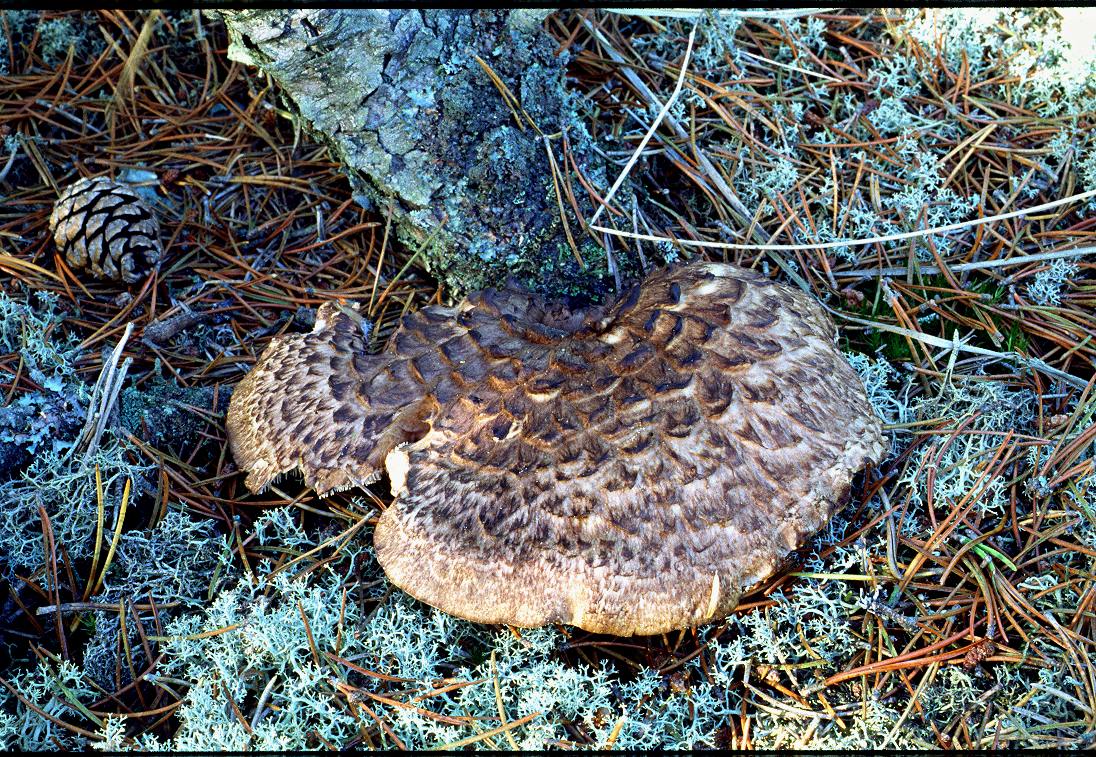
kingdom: Fungi
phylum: Basidiomycota
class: Agaricomycetes
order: Thelephorales
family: Bankeraceae
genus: Sarcodon
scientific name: Sarcodon squamosus
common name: småskællet kødpigsvamp
